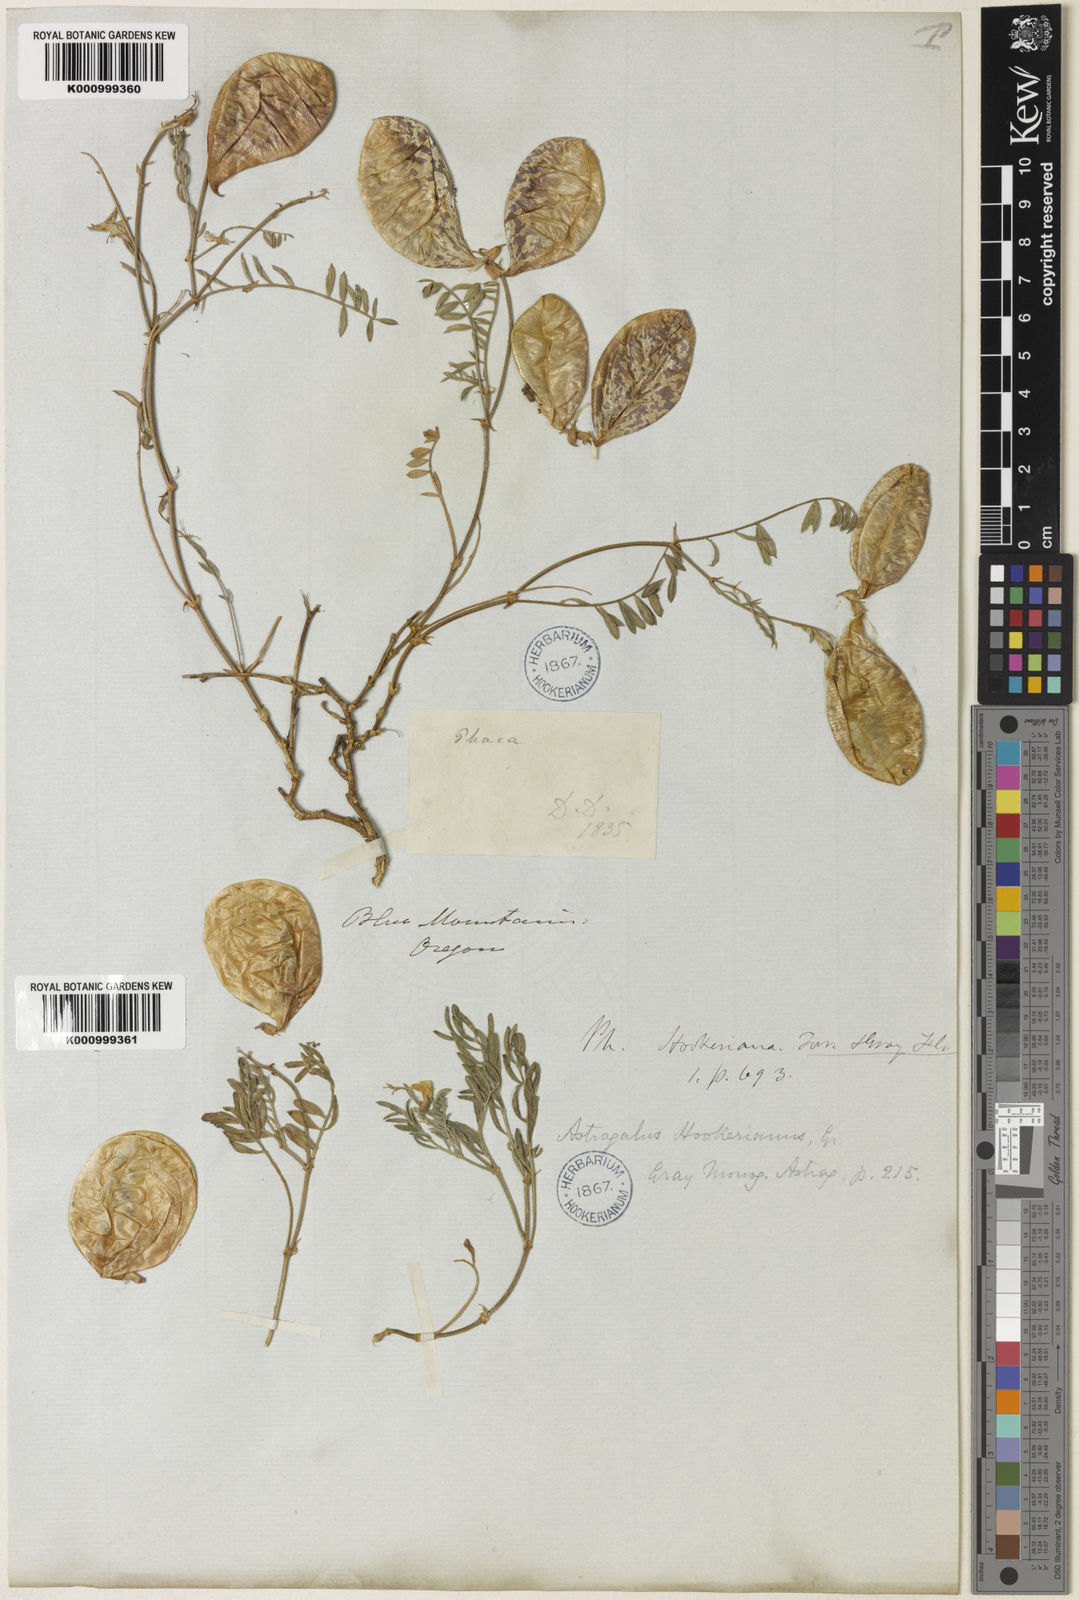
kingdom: Plantae
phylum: Tracheophyta
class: Magnoliopsida
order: Fabales
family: Fabaceae
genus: Astragalus
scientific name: Astragalus whitneyi
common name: Balloonpod milkvetch
